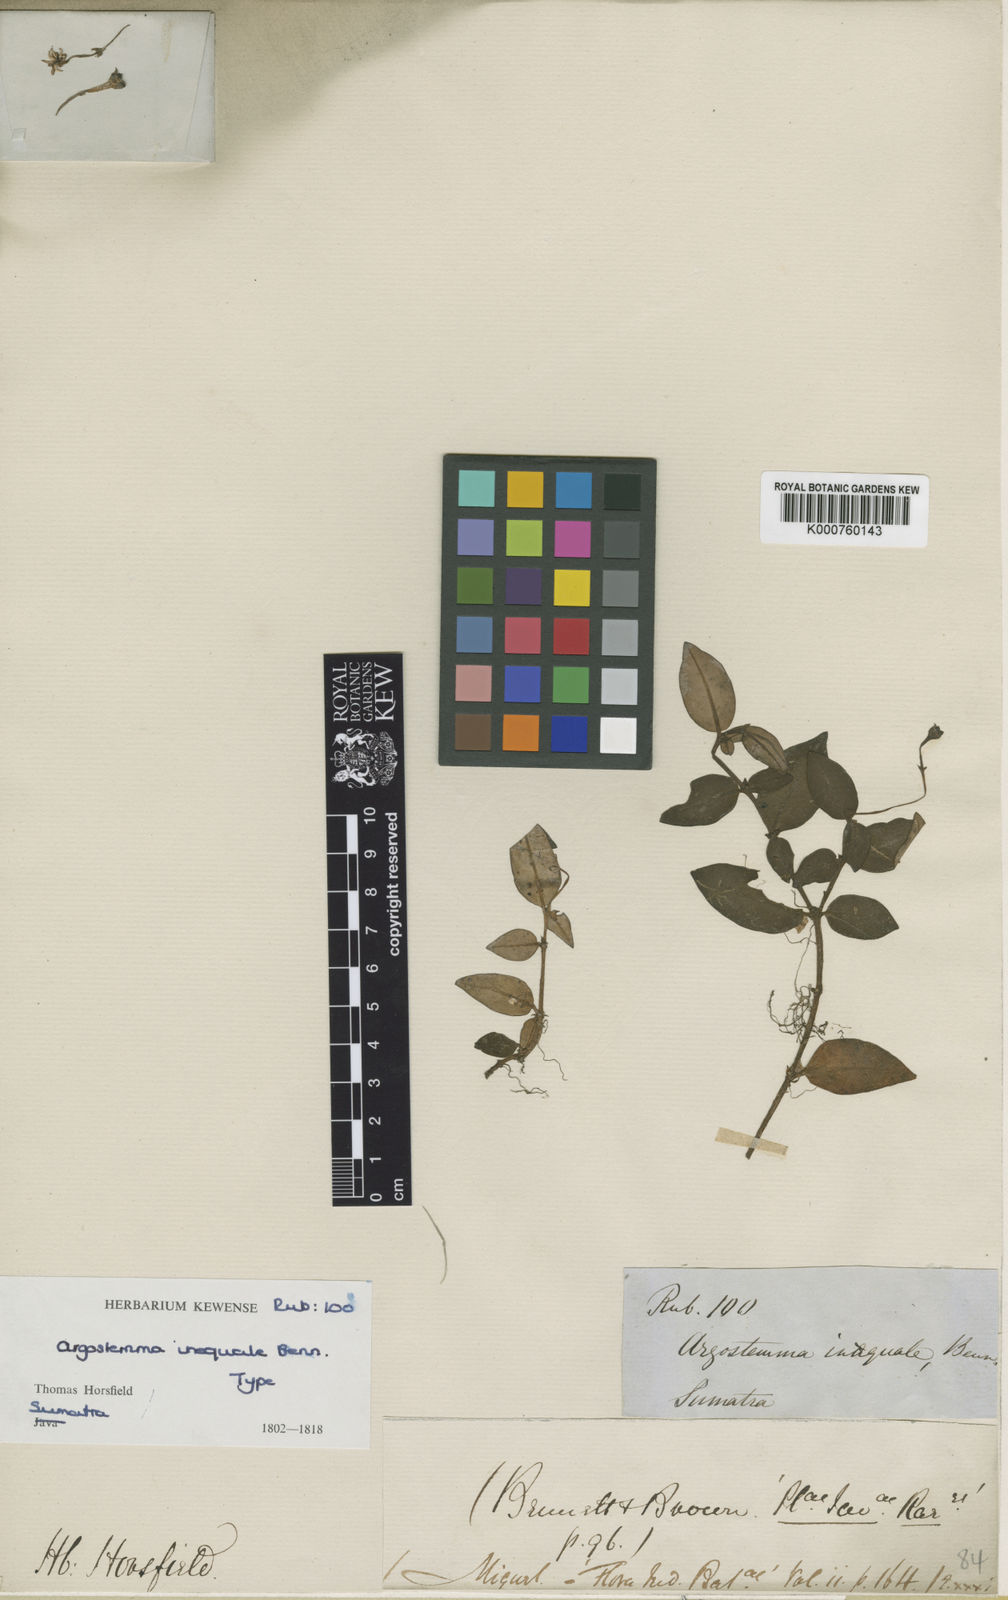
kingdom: Plantae
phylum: Tracheophyta
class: Magnoliopsida
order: Gentianales
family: Rubiaceae
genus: Argostemma
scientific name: Argostemma inaequale
